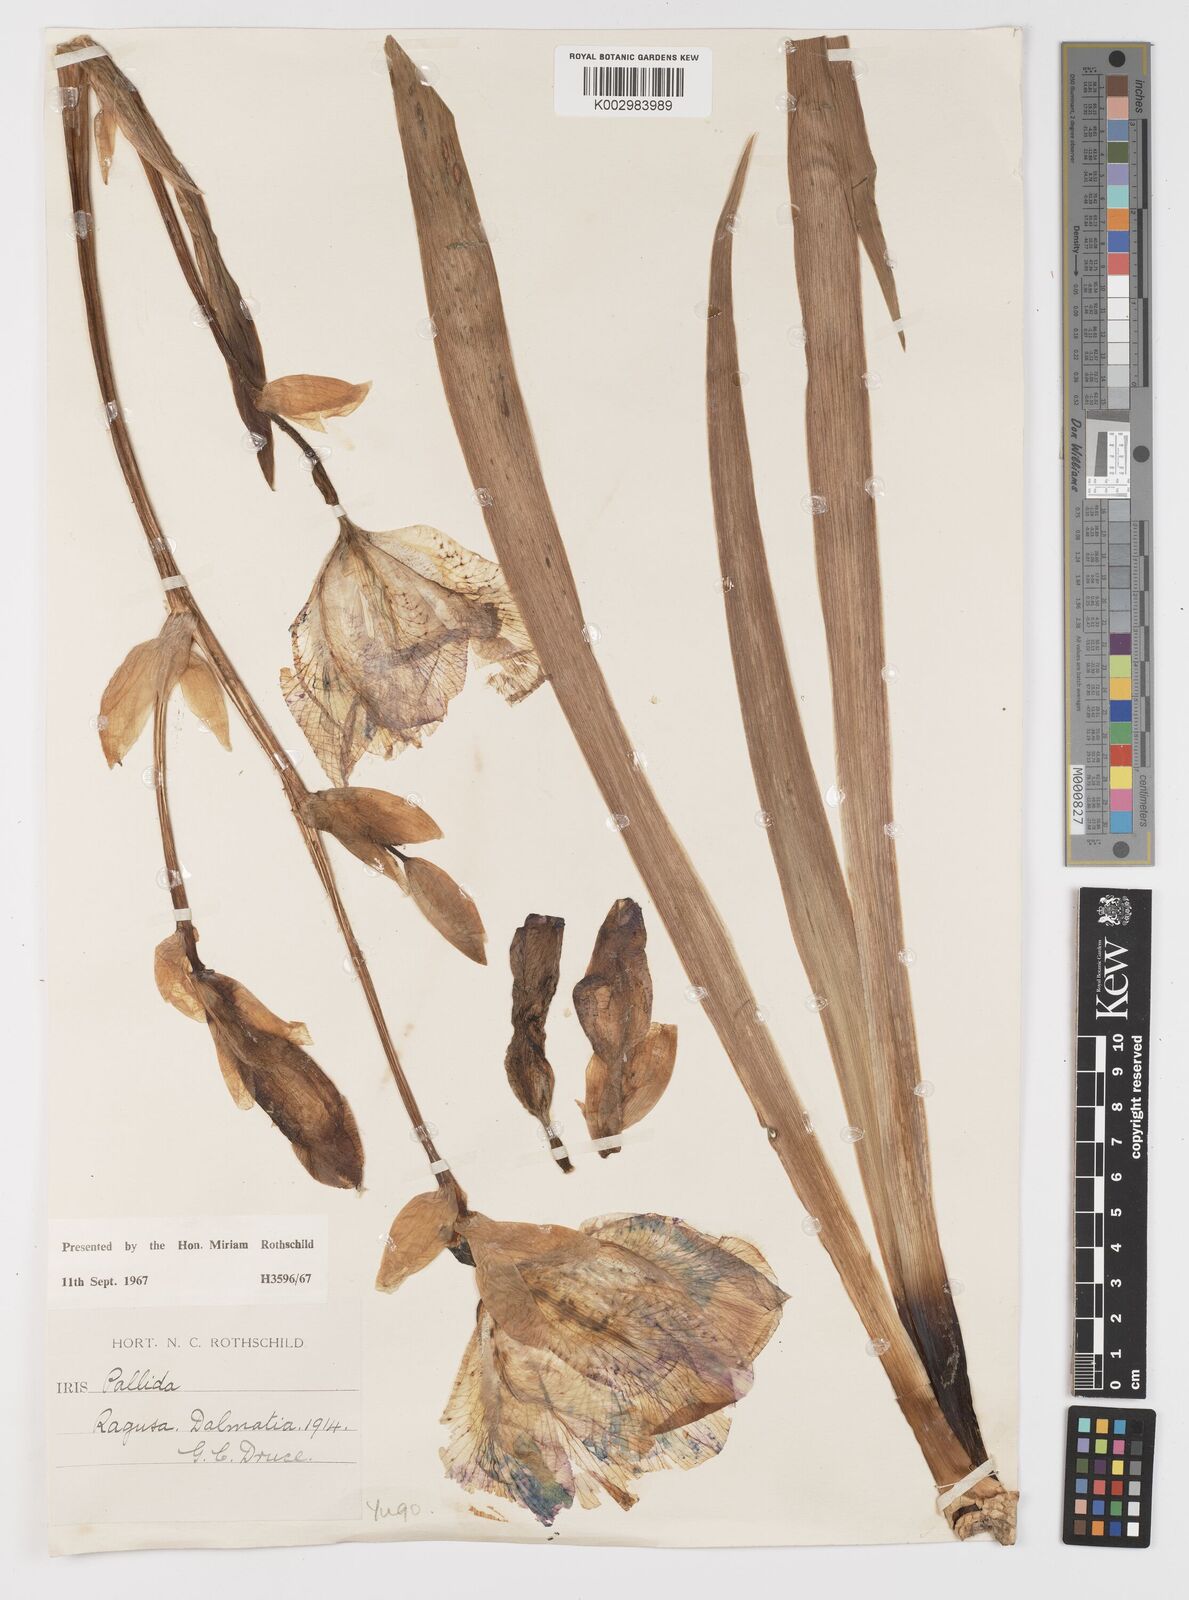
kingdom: Plantae
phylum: Tracheophyta
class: Liliopsida
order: Asparagales
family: Iridaceae
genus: Iris
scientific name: Iris halophila
